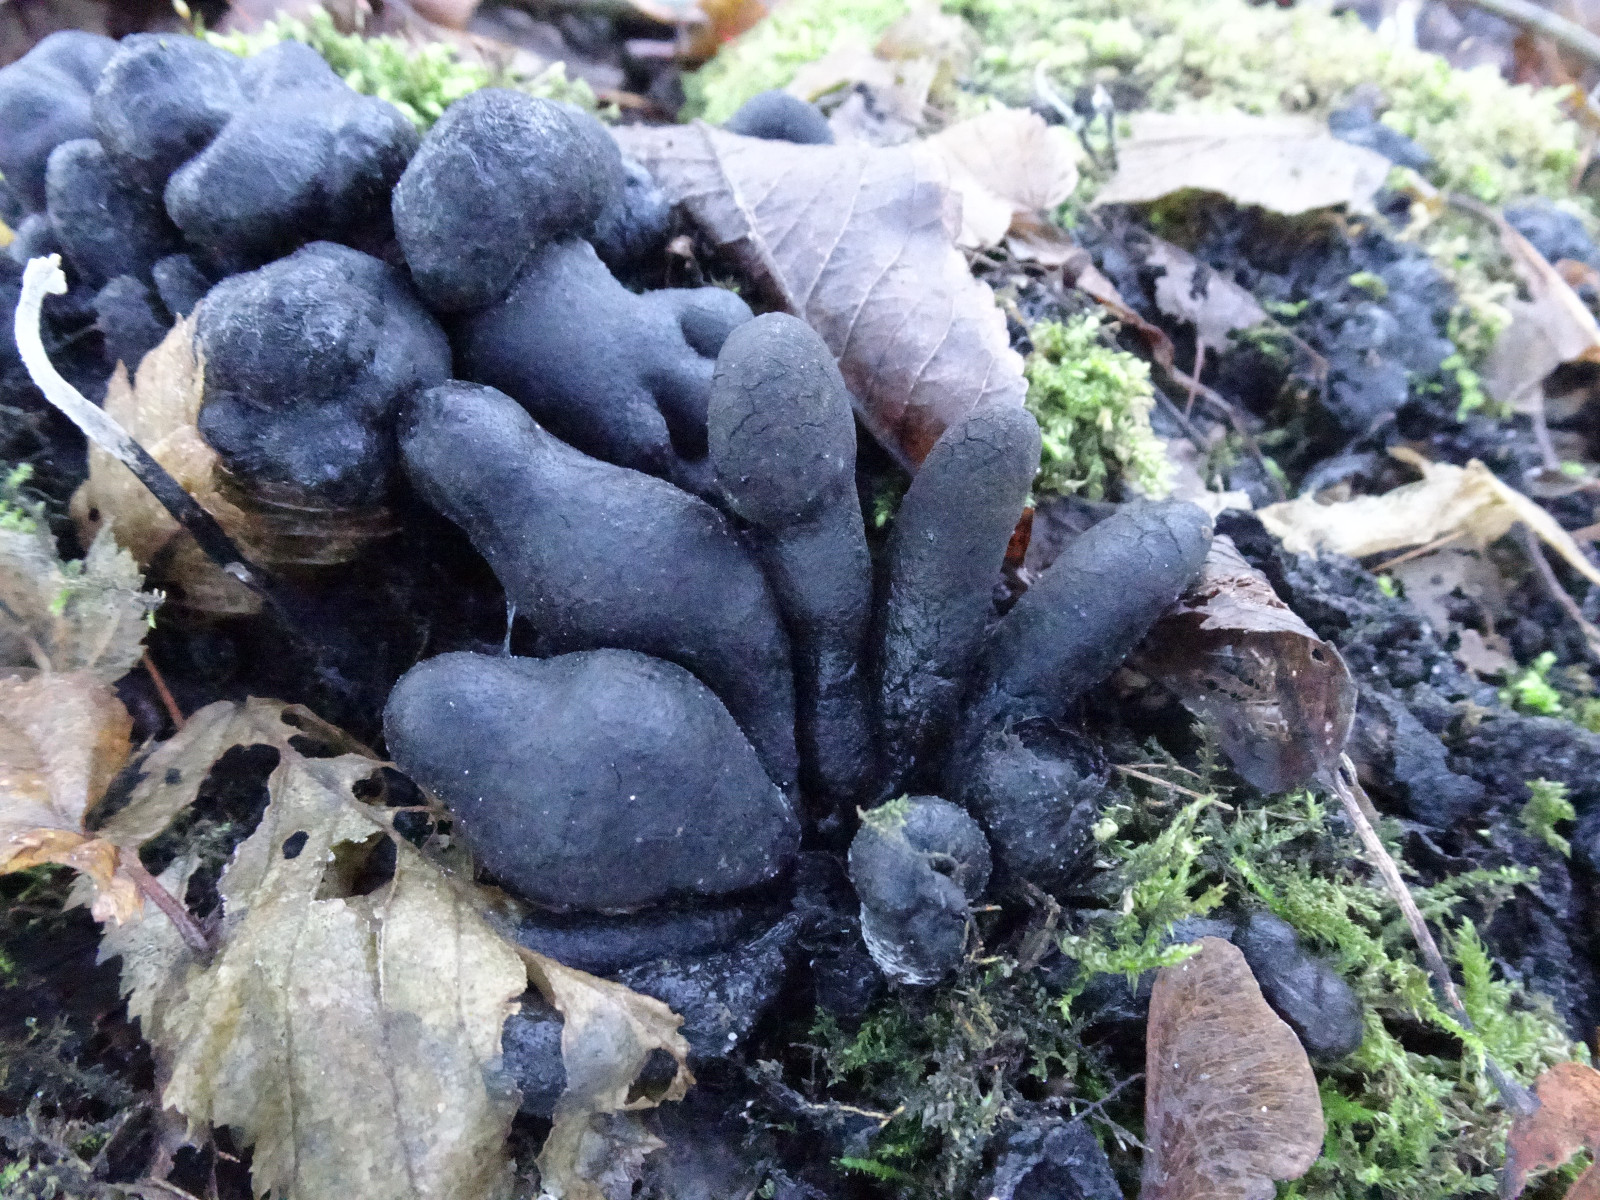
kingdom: Fungi
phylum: Ascomycota
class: Sordariomycetes
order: Xylariales
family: Xylariaceae
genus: Xylaria
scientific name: Xylaria polymorpha
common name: kølle-stødsvamp
